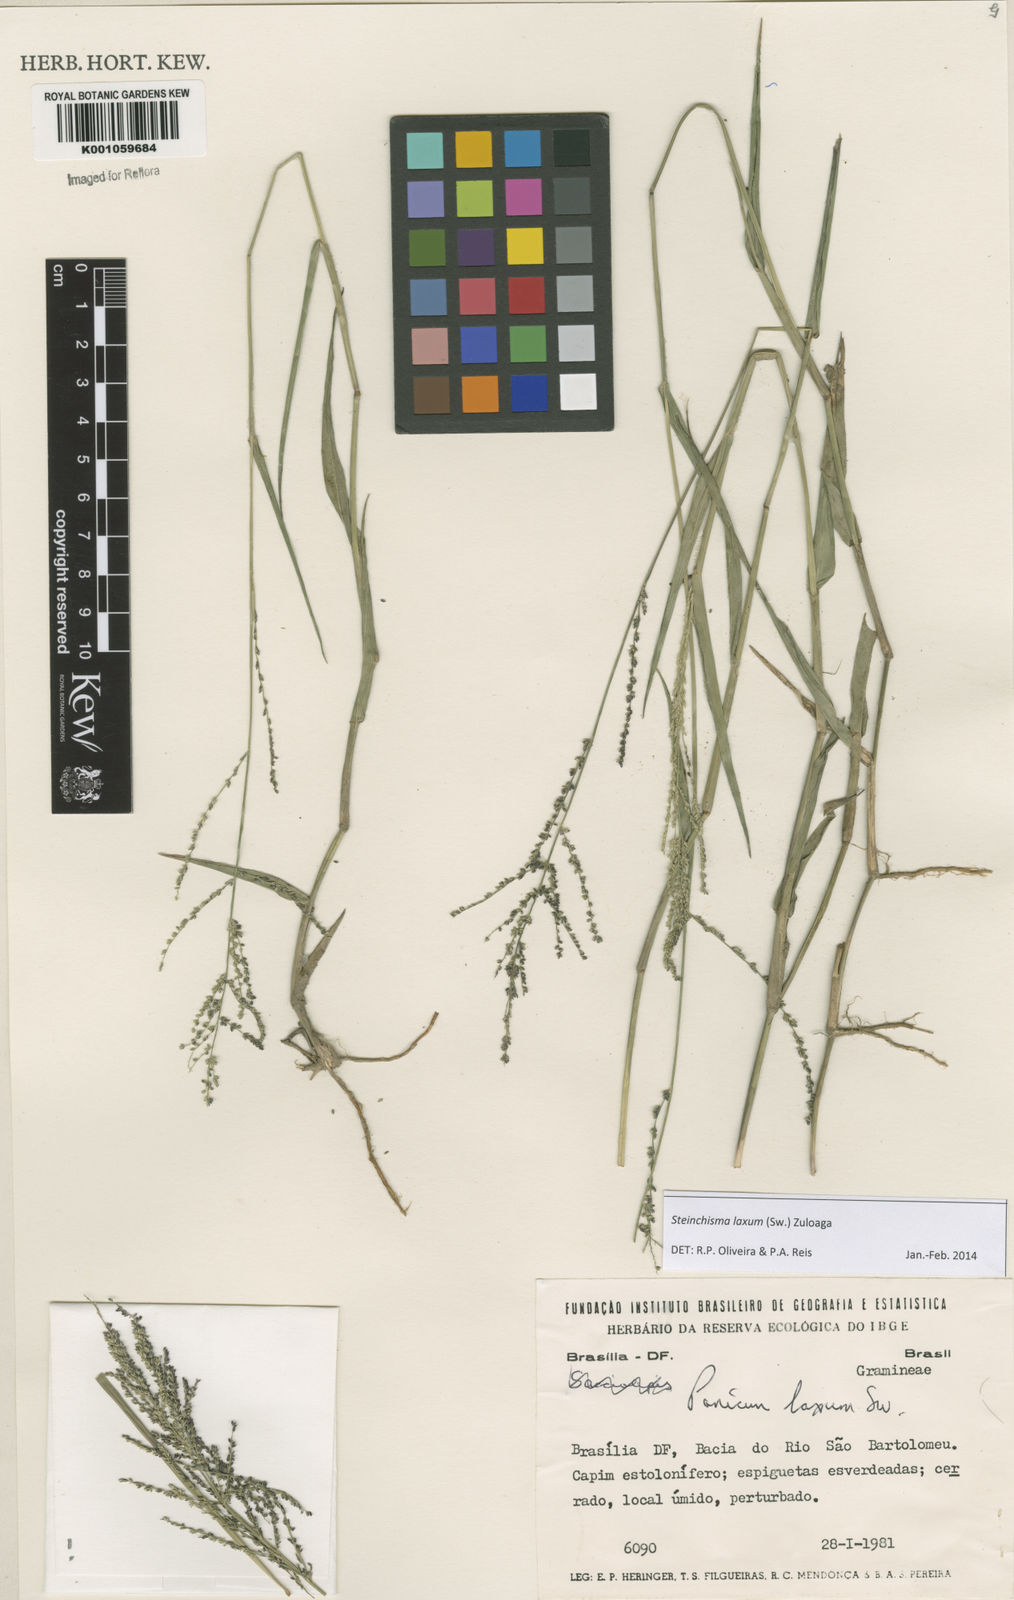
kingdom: Plantae
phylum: Tracheophyta
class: Liliopsida
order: Poales
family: Poaceae
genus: Steinchisma
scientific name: Steinchisma laxum
